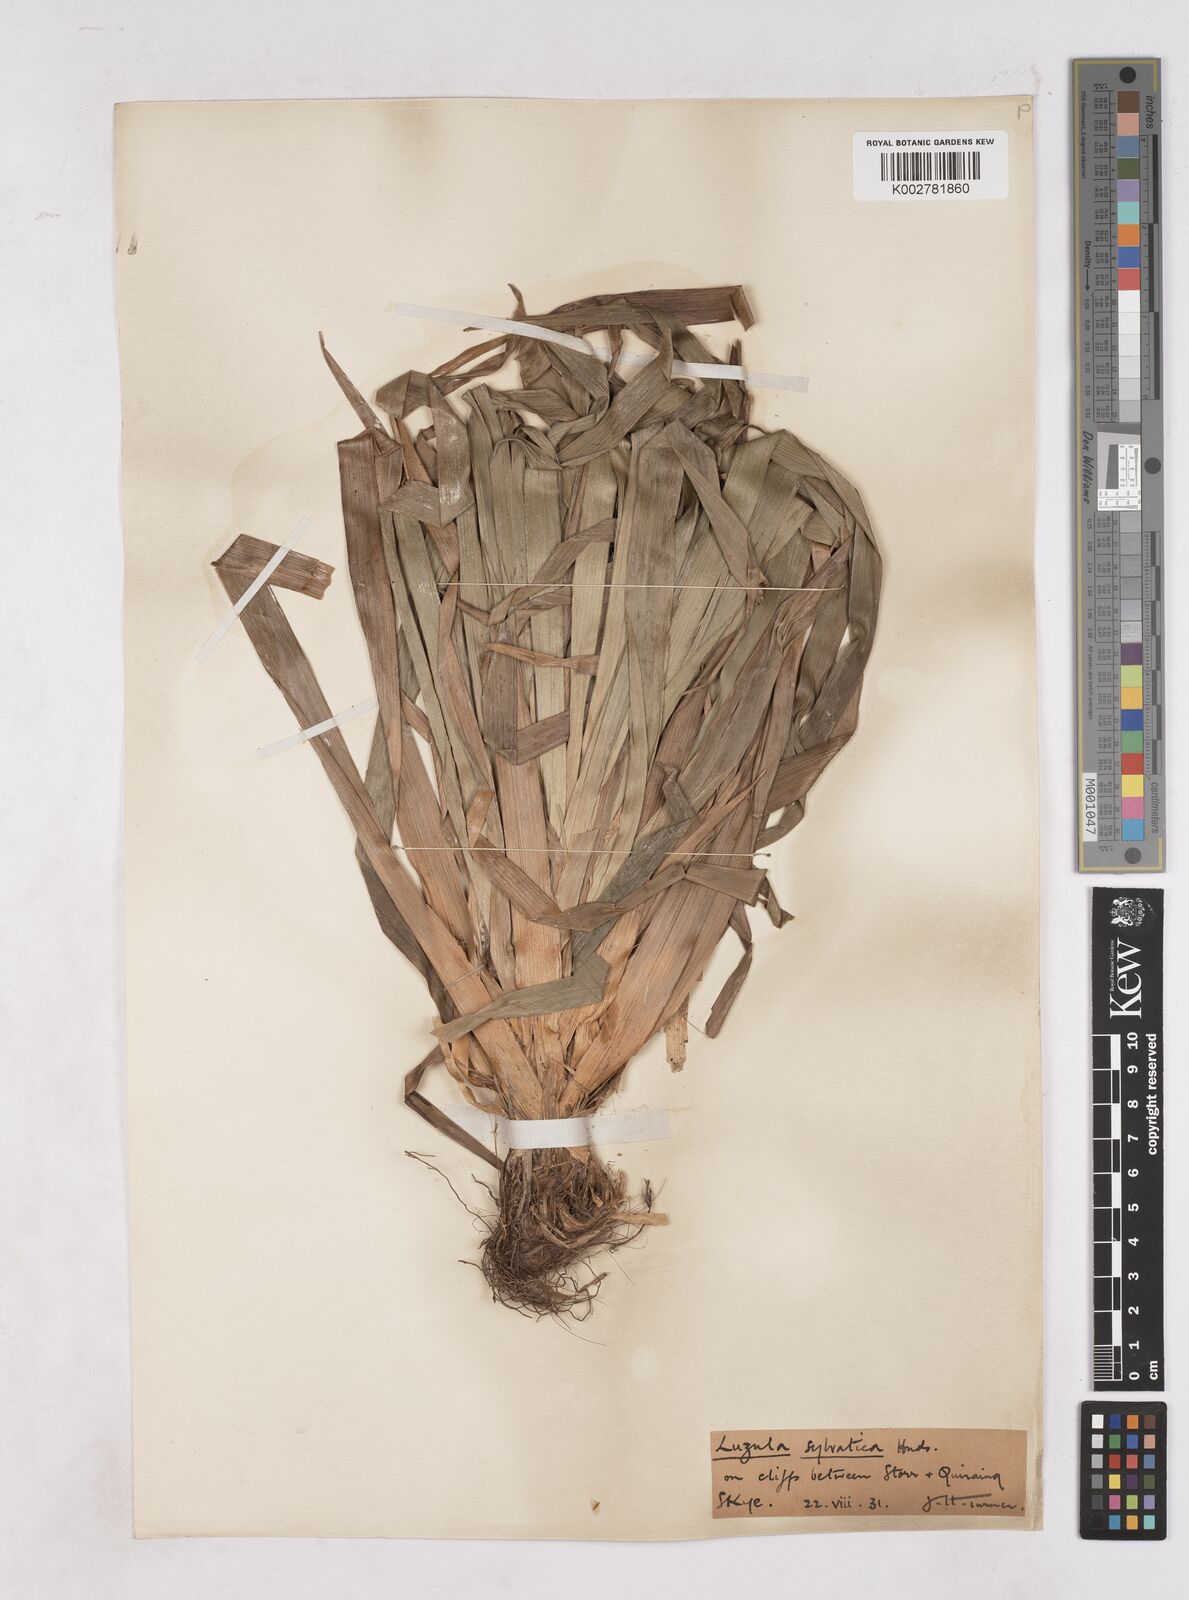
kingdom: Plantae
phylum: Tracheophyta
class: Liliopsida
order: Poales
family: Juncaceae
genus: Luzula
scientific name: Luzula sylvatica
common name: Great wood-rush
